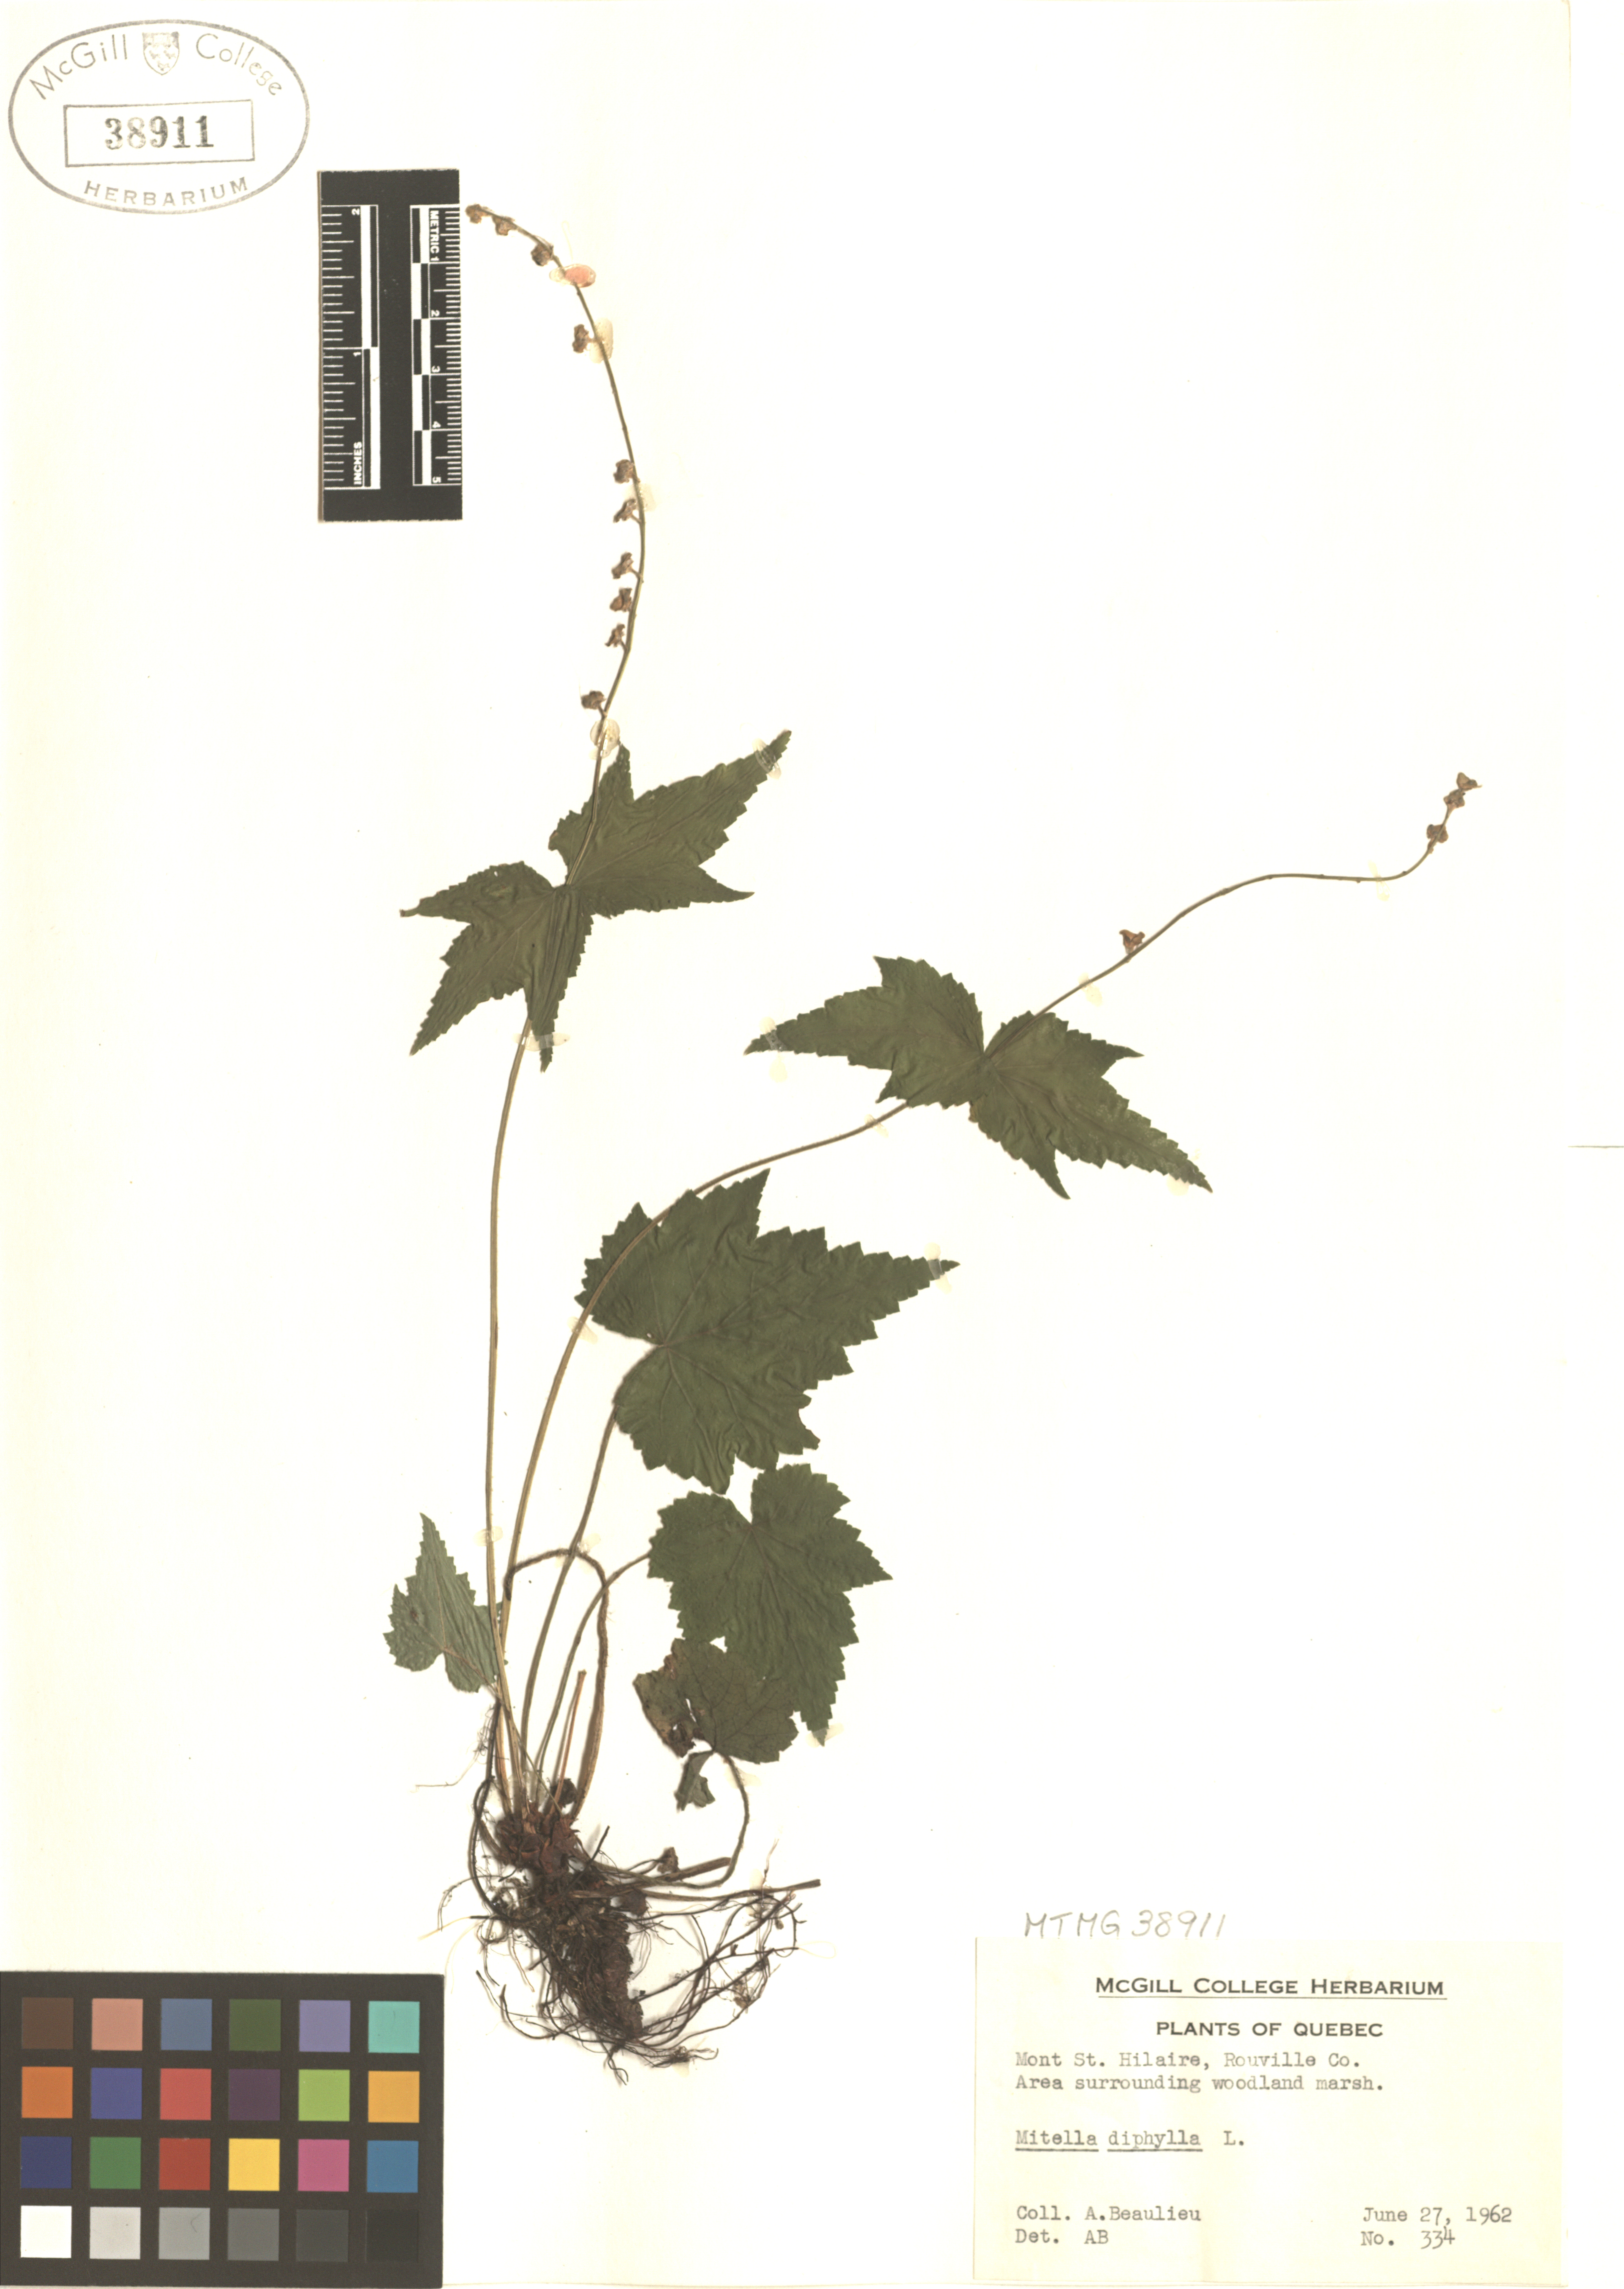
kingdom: Plantae
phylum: Tracheophyta
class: Magnoliopsida
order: Saxifragales
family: Saxifragaceae
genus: Mitella
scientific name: Mitella diphylla
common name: Coolwort
